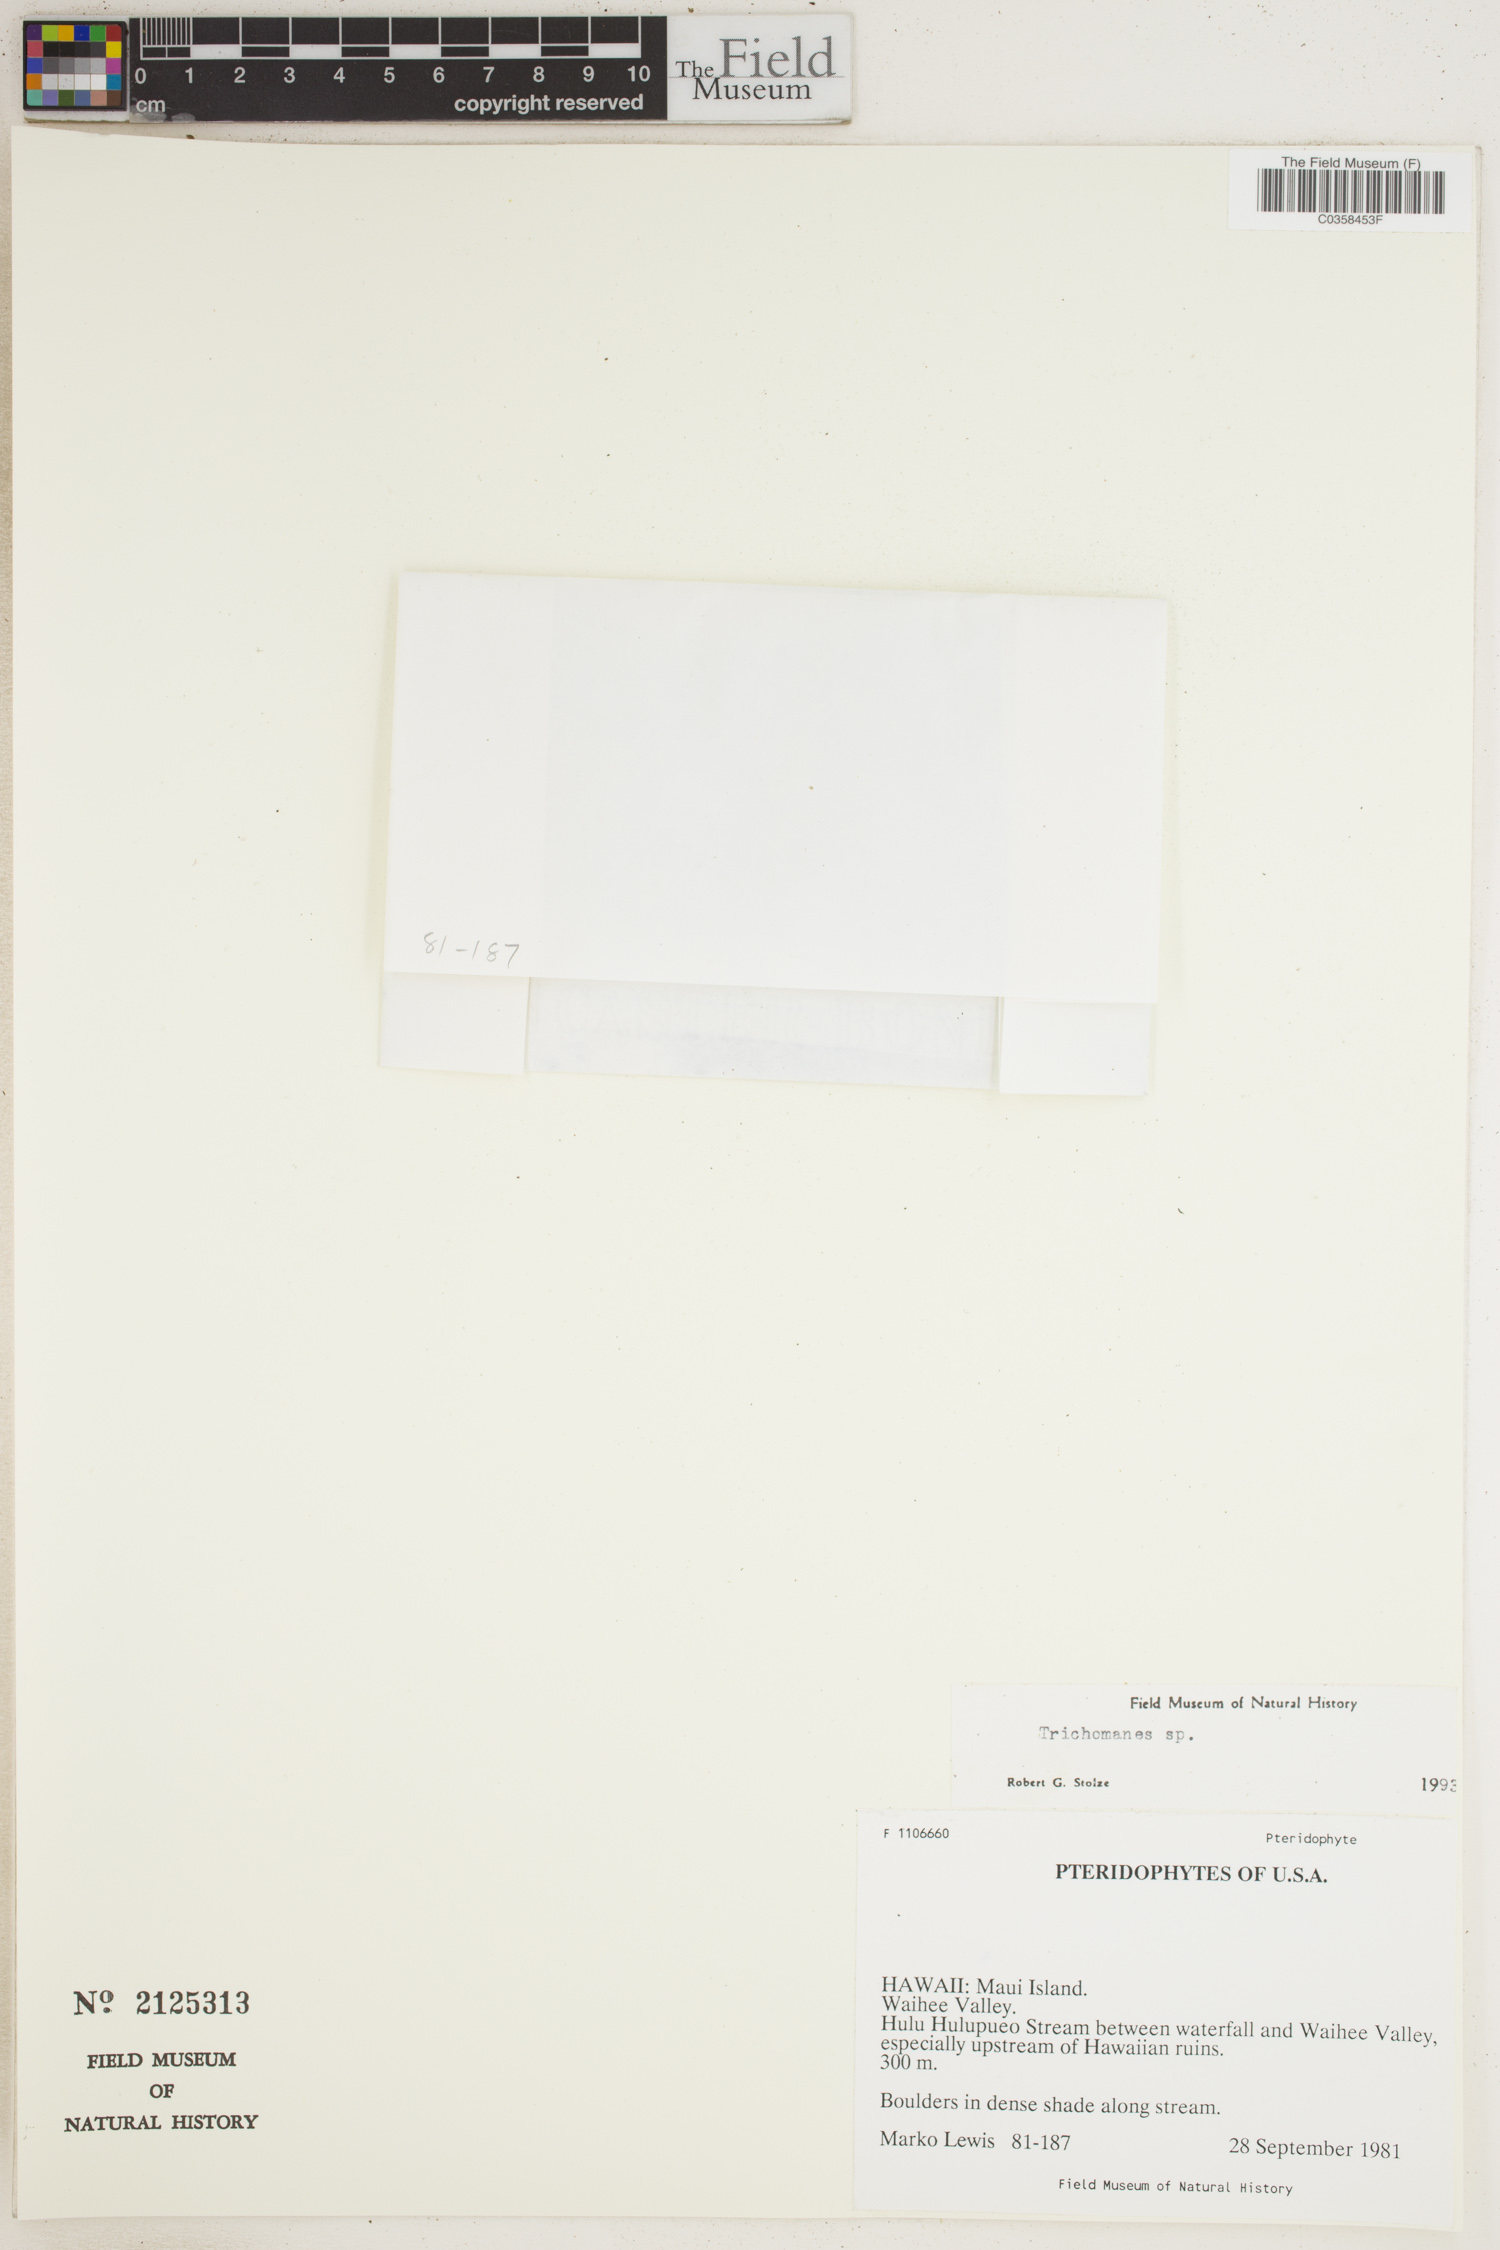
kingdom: Plantae
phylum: Tracheophyta
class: Polypodiopsida
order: Hymenophyllales
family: Hymenophyllaceae
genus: Trichomanes
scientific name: Trichomanes
